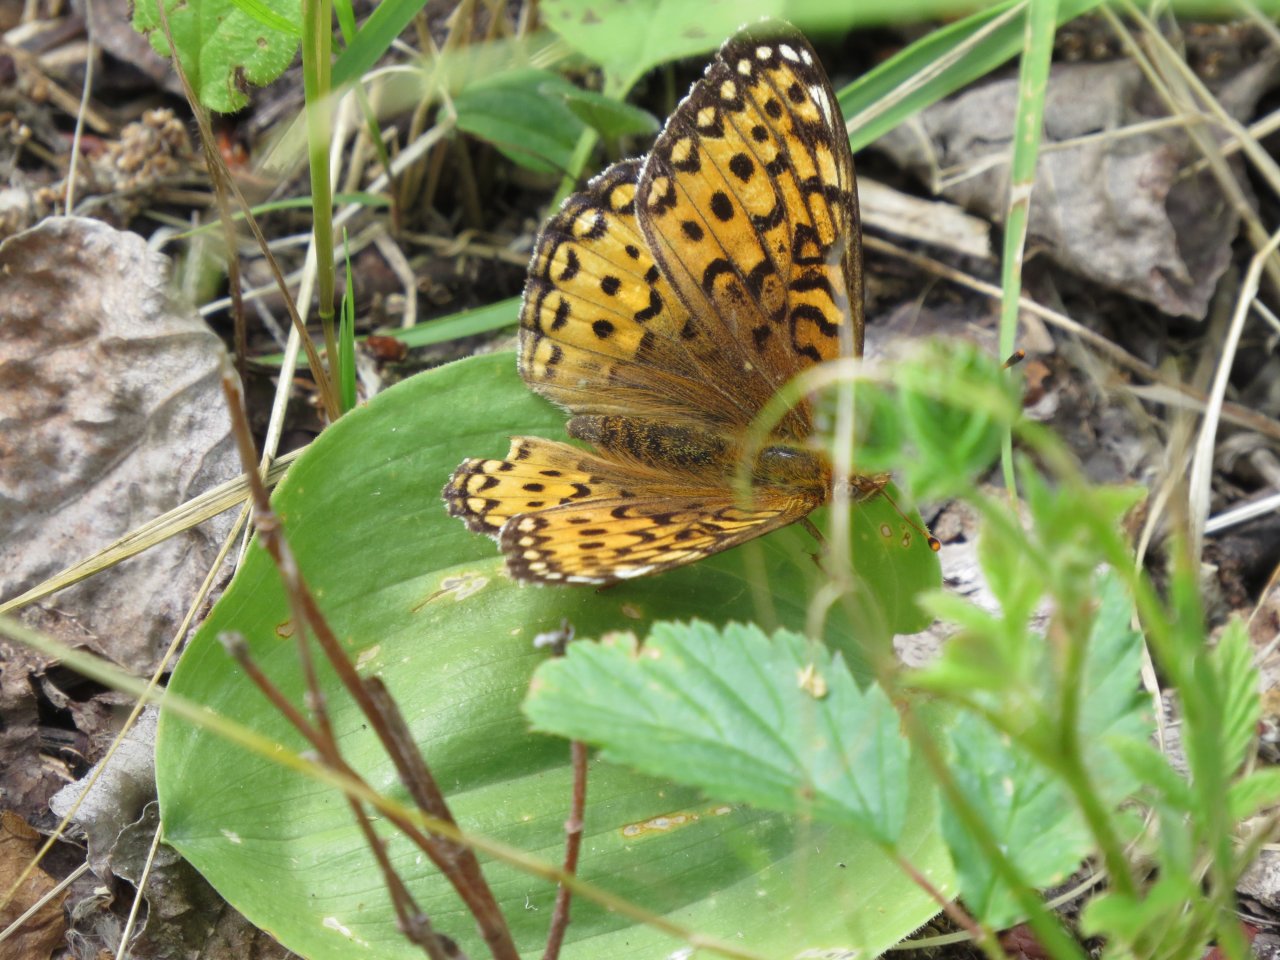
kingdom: Animalia
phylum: Arthropoda
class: Insecta
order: Lepidoptera
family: Nymphalidae
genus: Speyeria
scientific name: Speyeria aphrodite
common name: Aphrodite Fritillary
